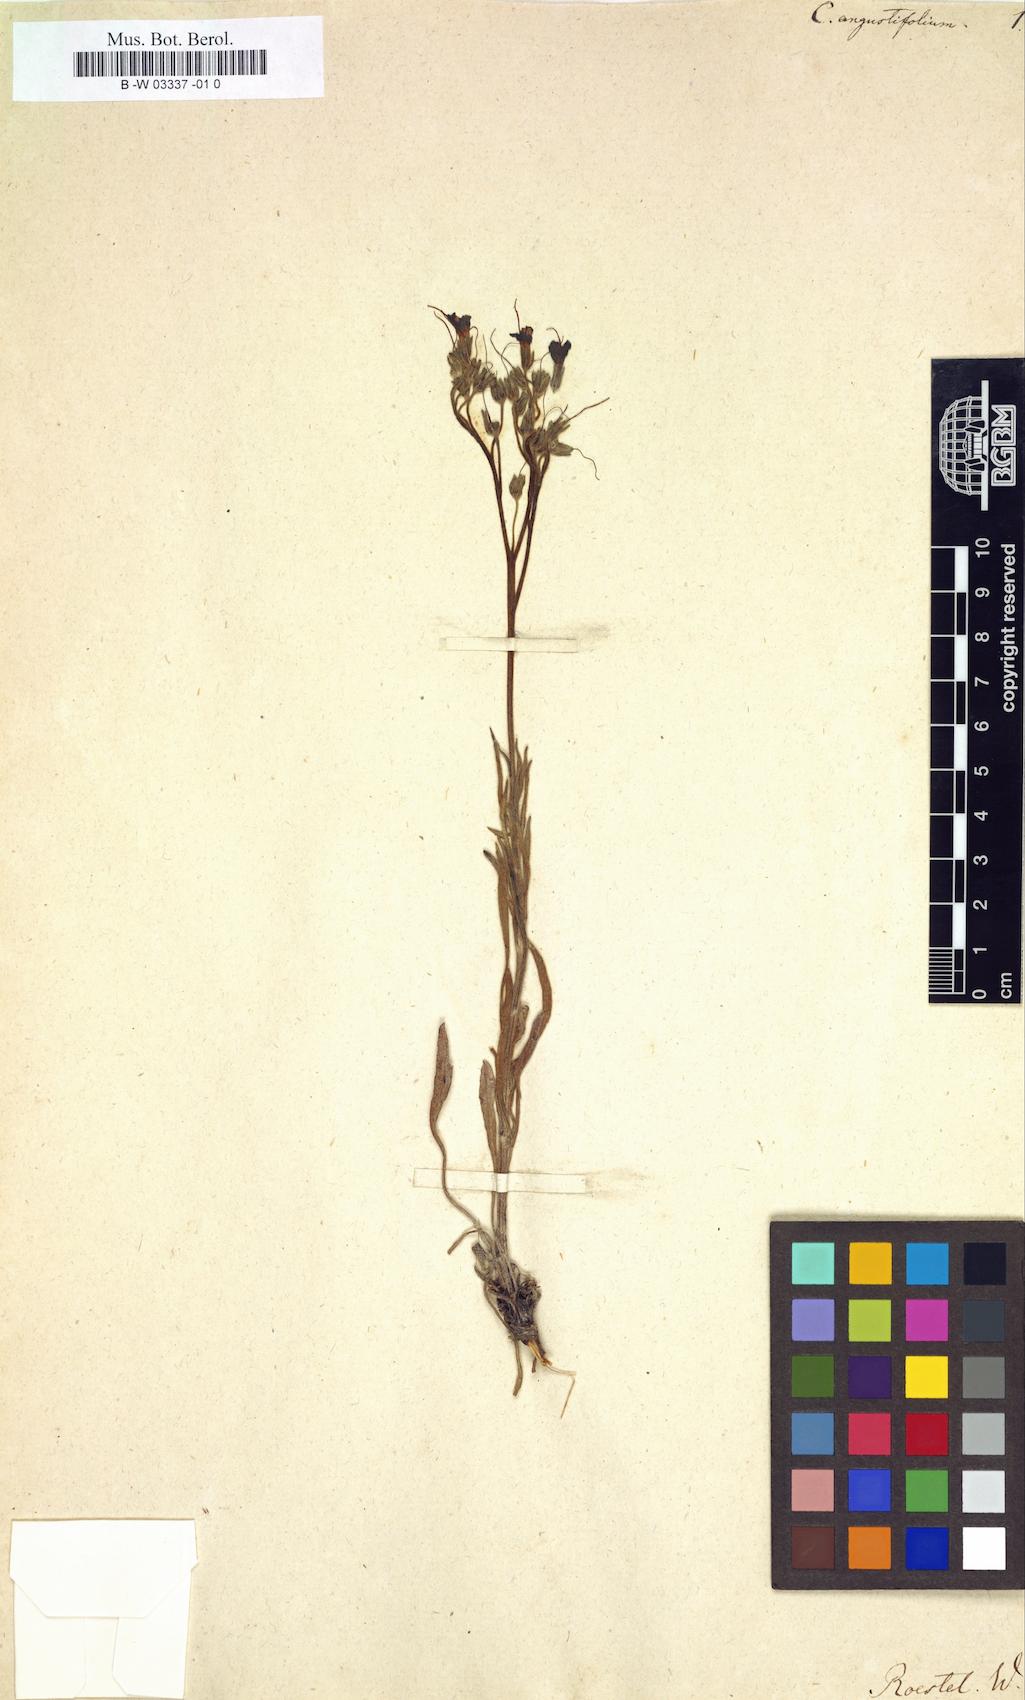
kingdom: Plantae
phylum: Tracheophyta
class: Magnoliopsida
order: Boraginales
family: Boraginaceae
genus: Paracaryum
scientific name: Paracaryum racemosum
